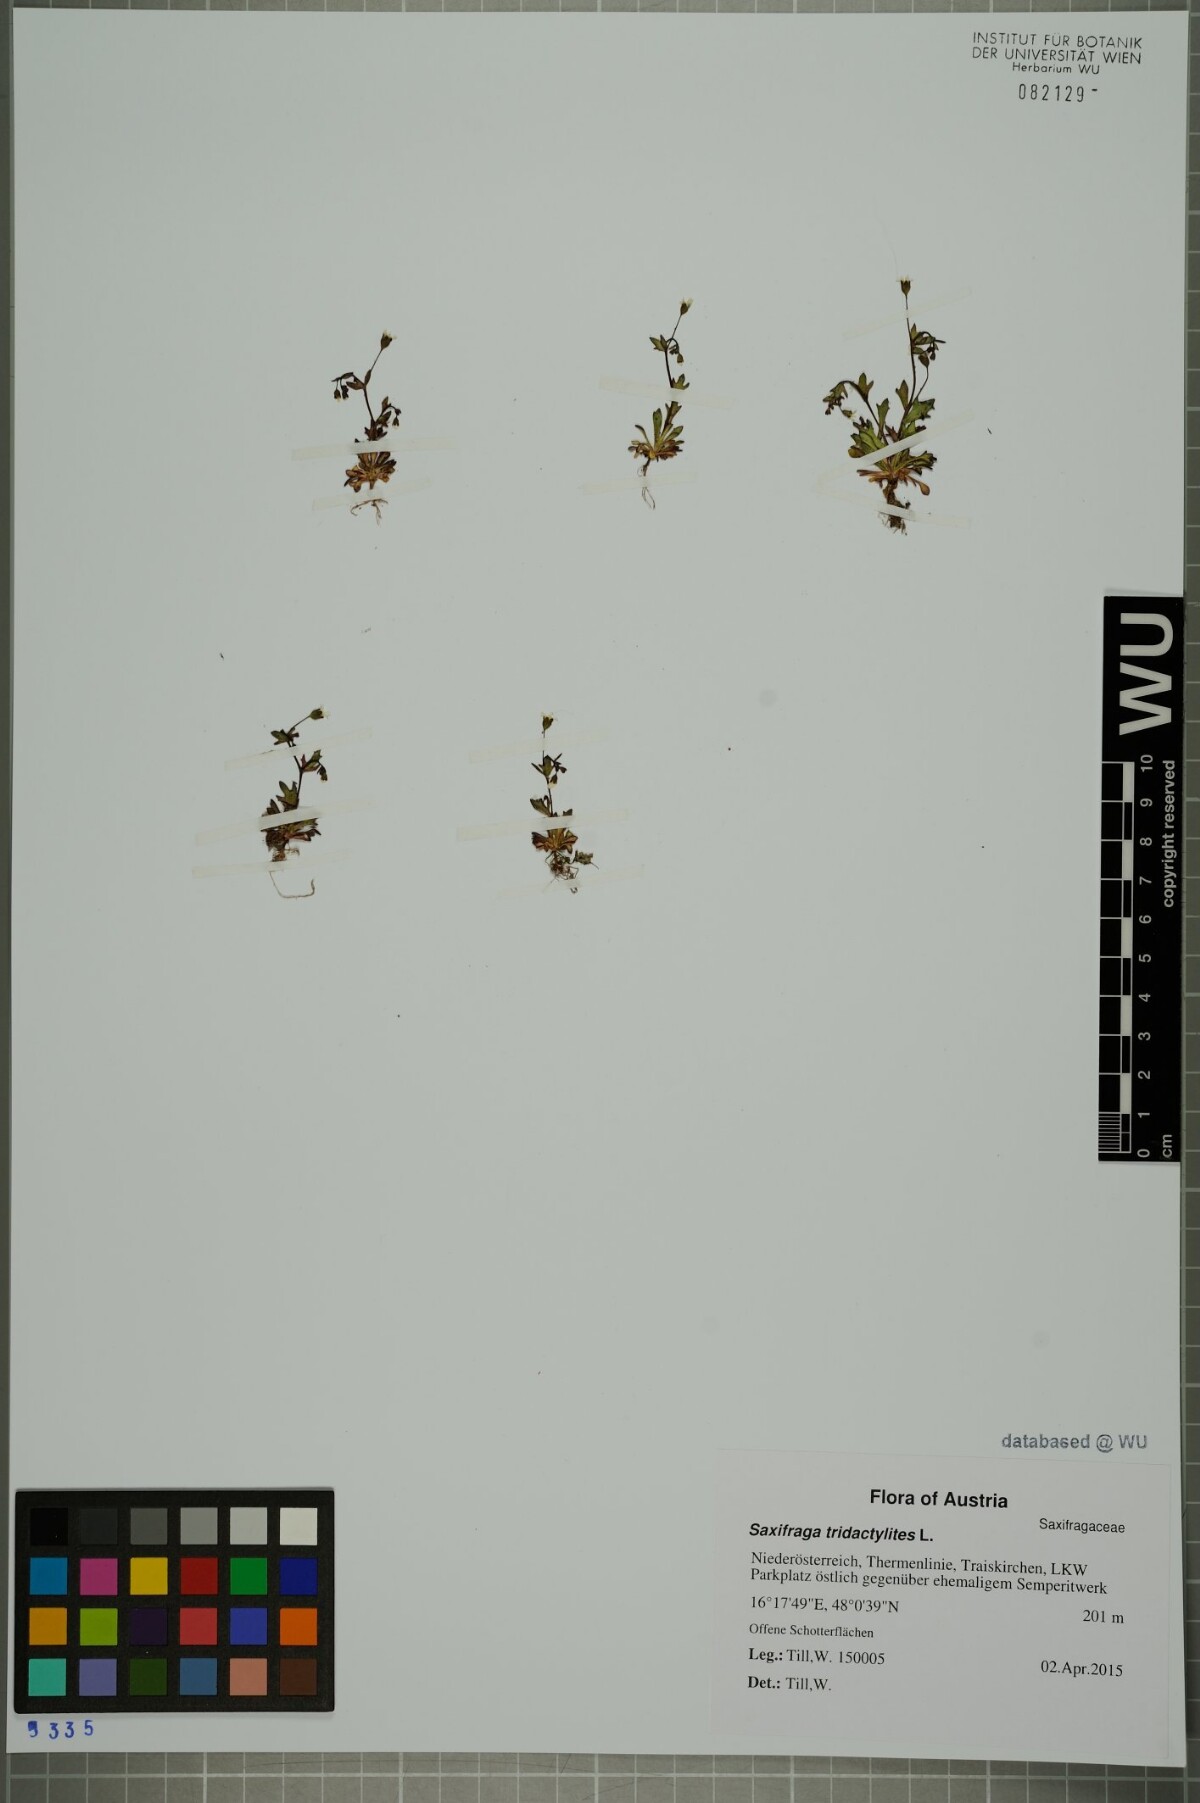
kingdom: Plantae
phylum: Tracheophyta
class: Magnoliopsida
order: Saxifragales
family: Saxifragaceae
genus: Saxifraga
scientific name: Saxifraga tridactylites
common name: Rue-leaved saxifrage
